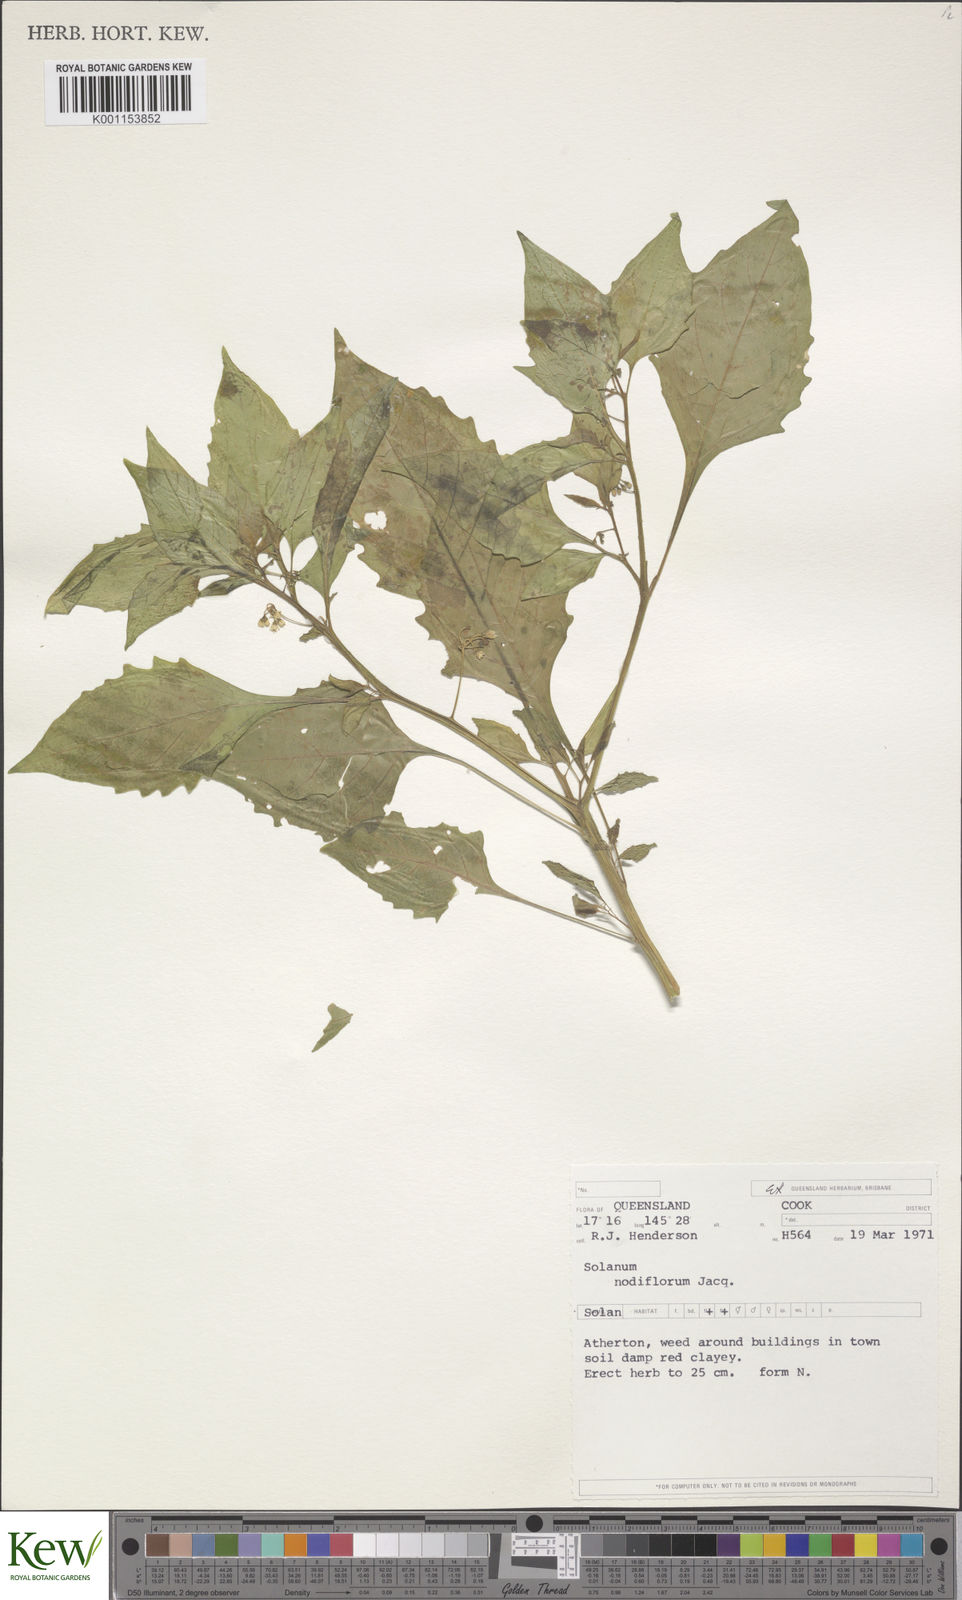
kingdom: Plantae
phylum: Tracheophyta
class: Magnoliopsida
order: Solanales
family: Solanaceae
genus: Solanum
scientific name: Solanum americanum
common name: American black nightshade
